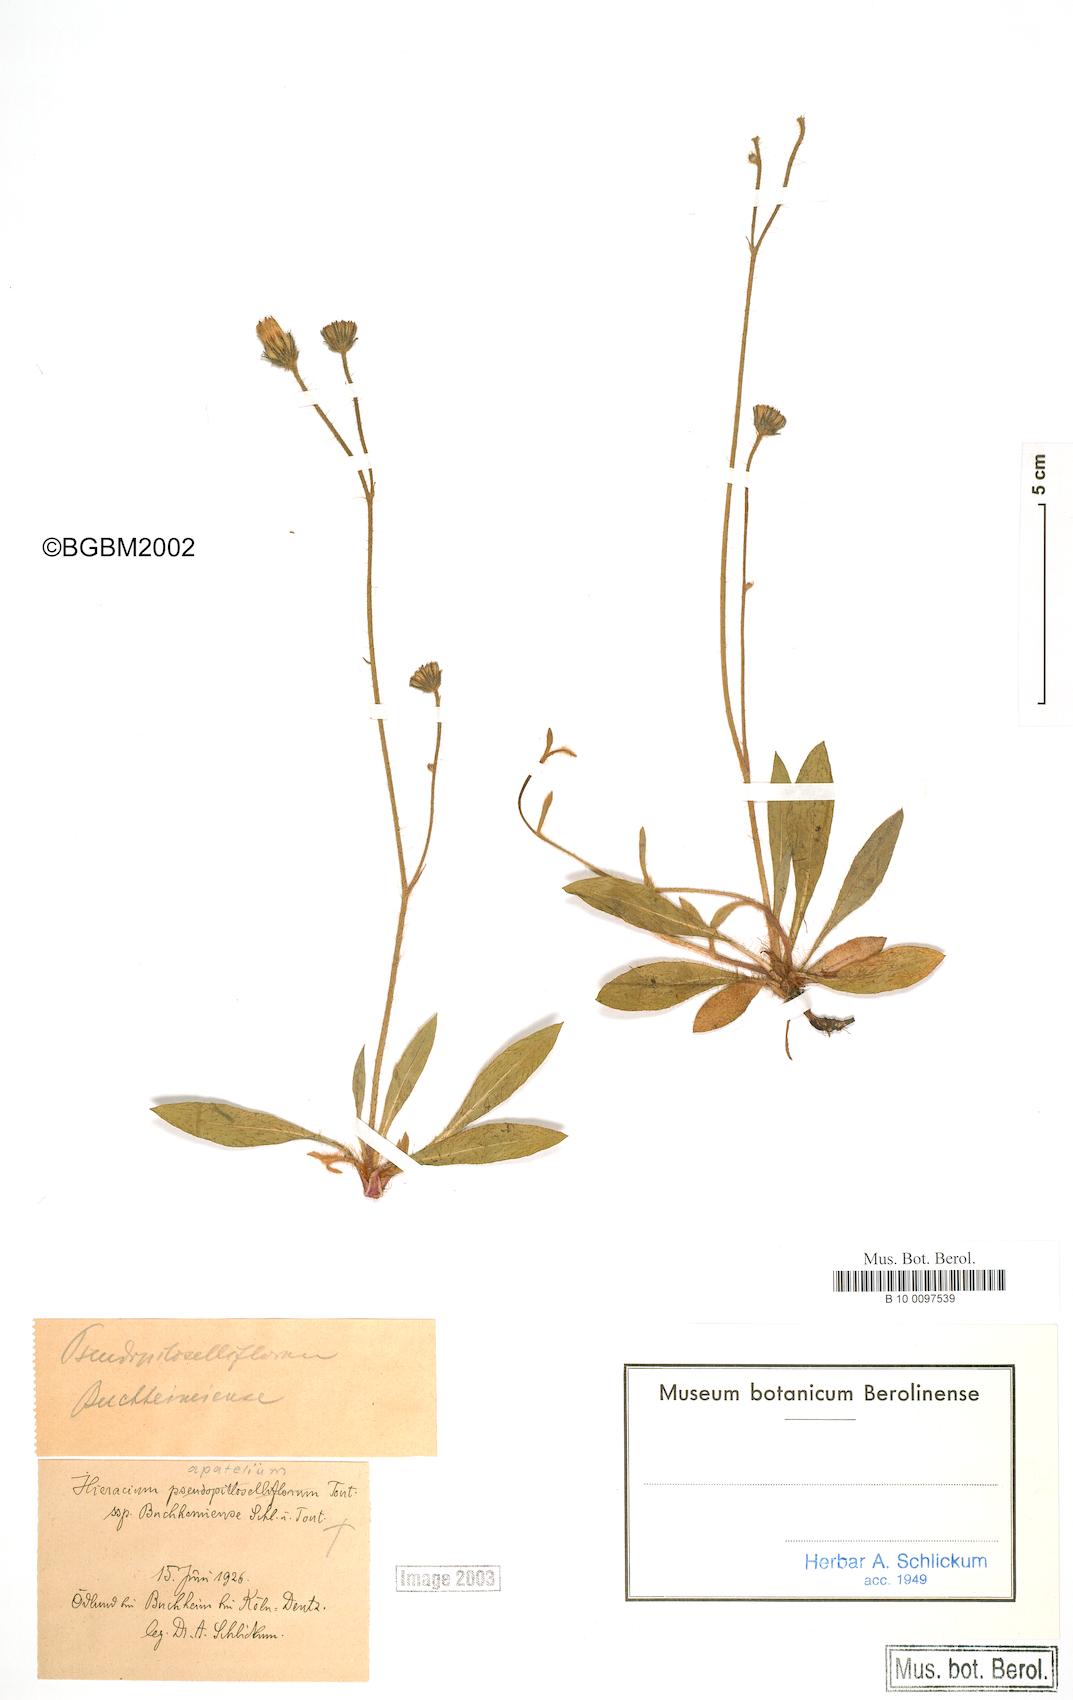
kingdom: Plantae
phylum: Tracheophyta
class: Magnoliopsida
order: Asterales
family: Asteraceae
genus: Pilosella
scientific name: Pilosella piloselliflora
